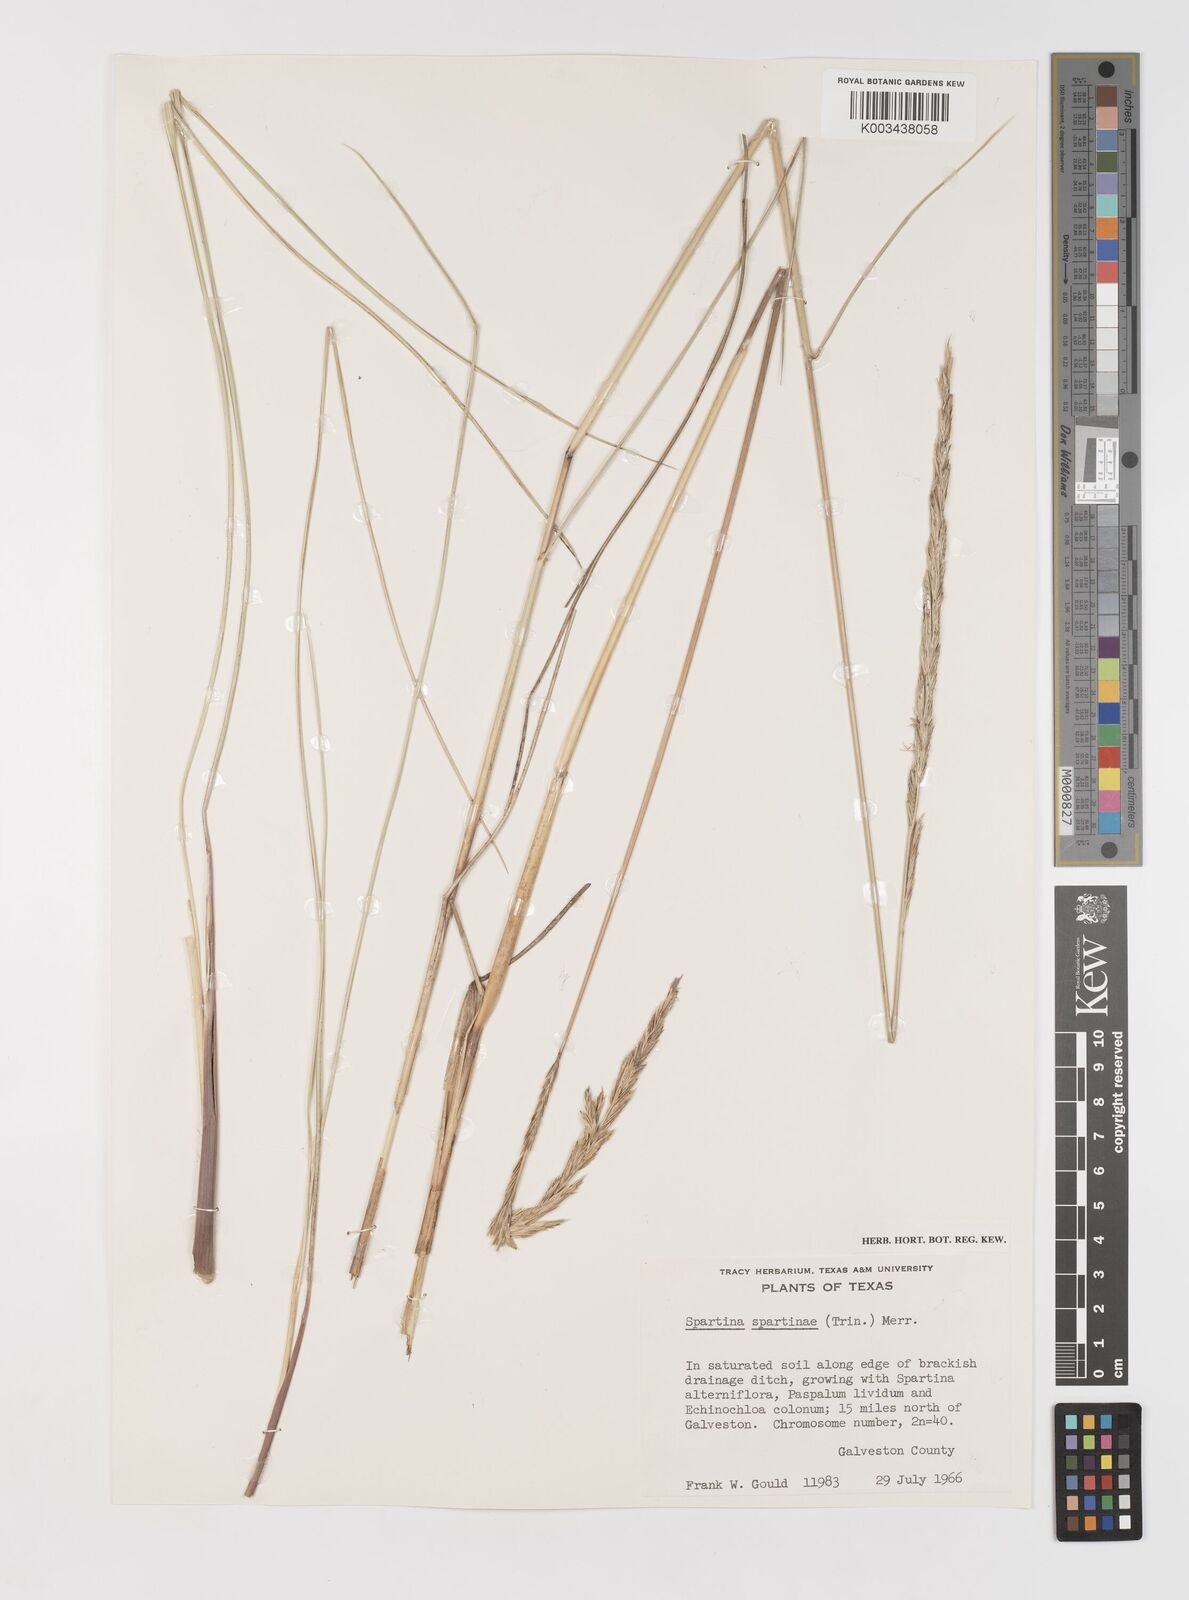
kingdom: Plantae
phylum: Tracheophyta
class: Liliopsida
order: Poales
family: Poaceae
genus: Sporobolus
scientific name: Sporobolus spartinae
